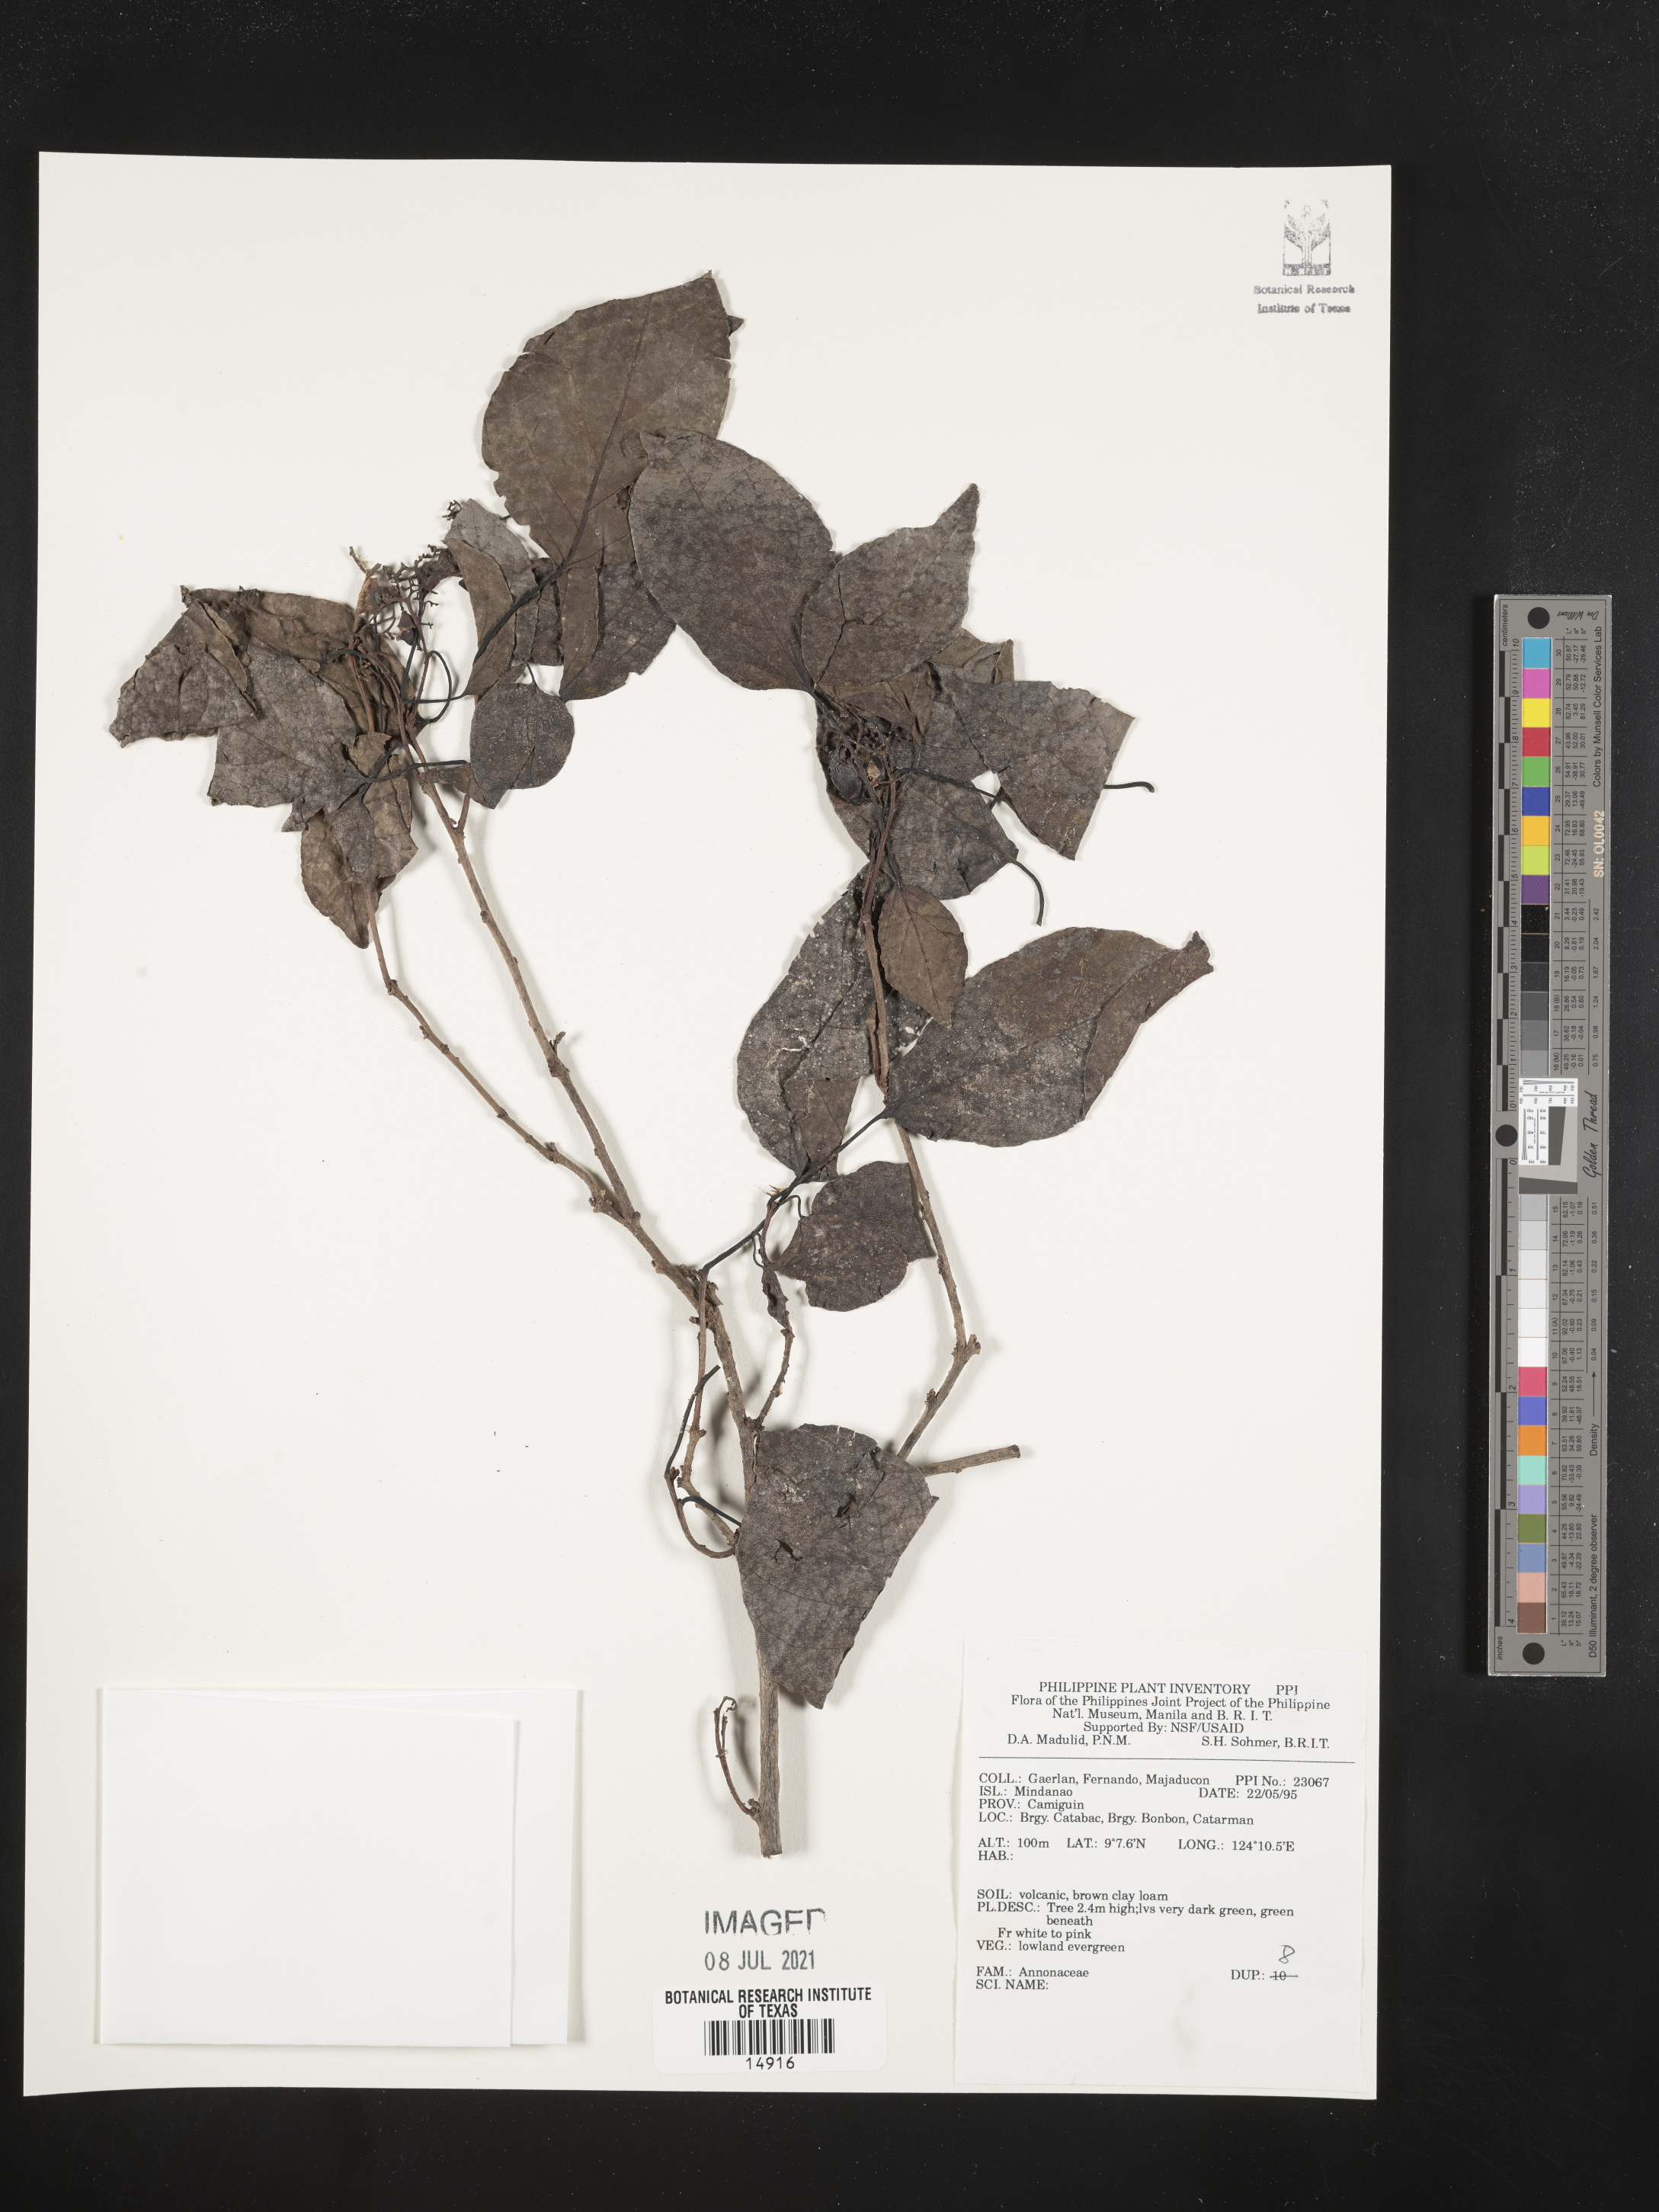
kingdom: Plantae
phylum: Tracheophyta
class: Magnoliopsida
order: Magnoliales
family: Annonaceae
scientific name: Annonaceae
